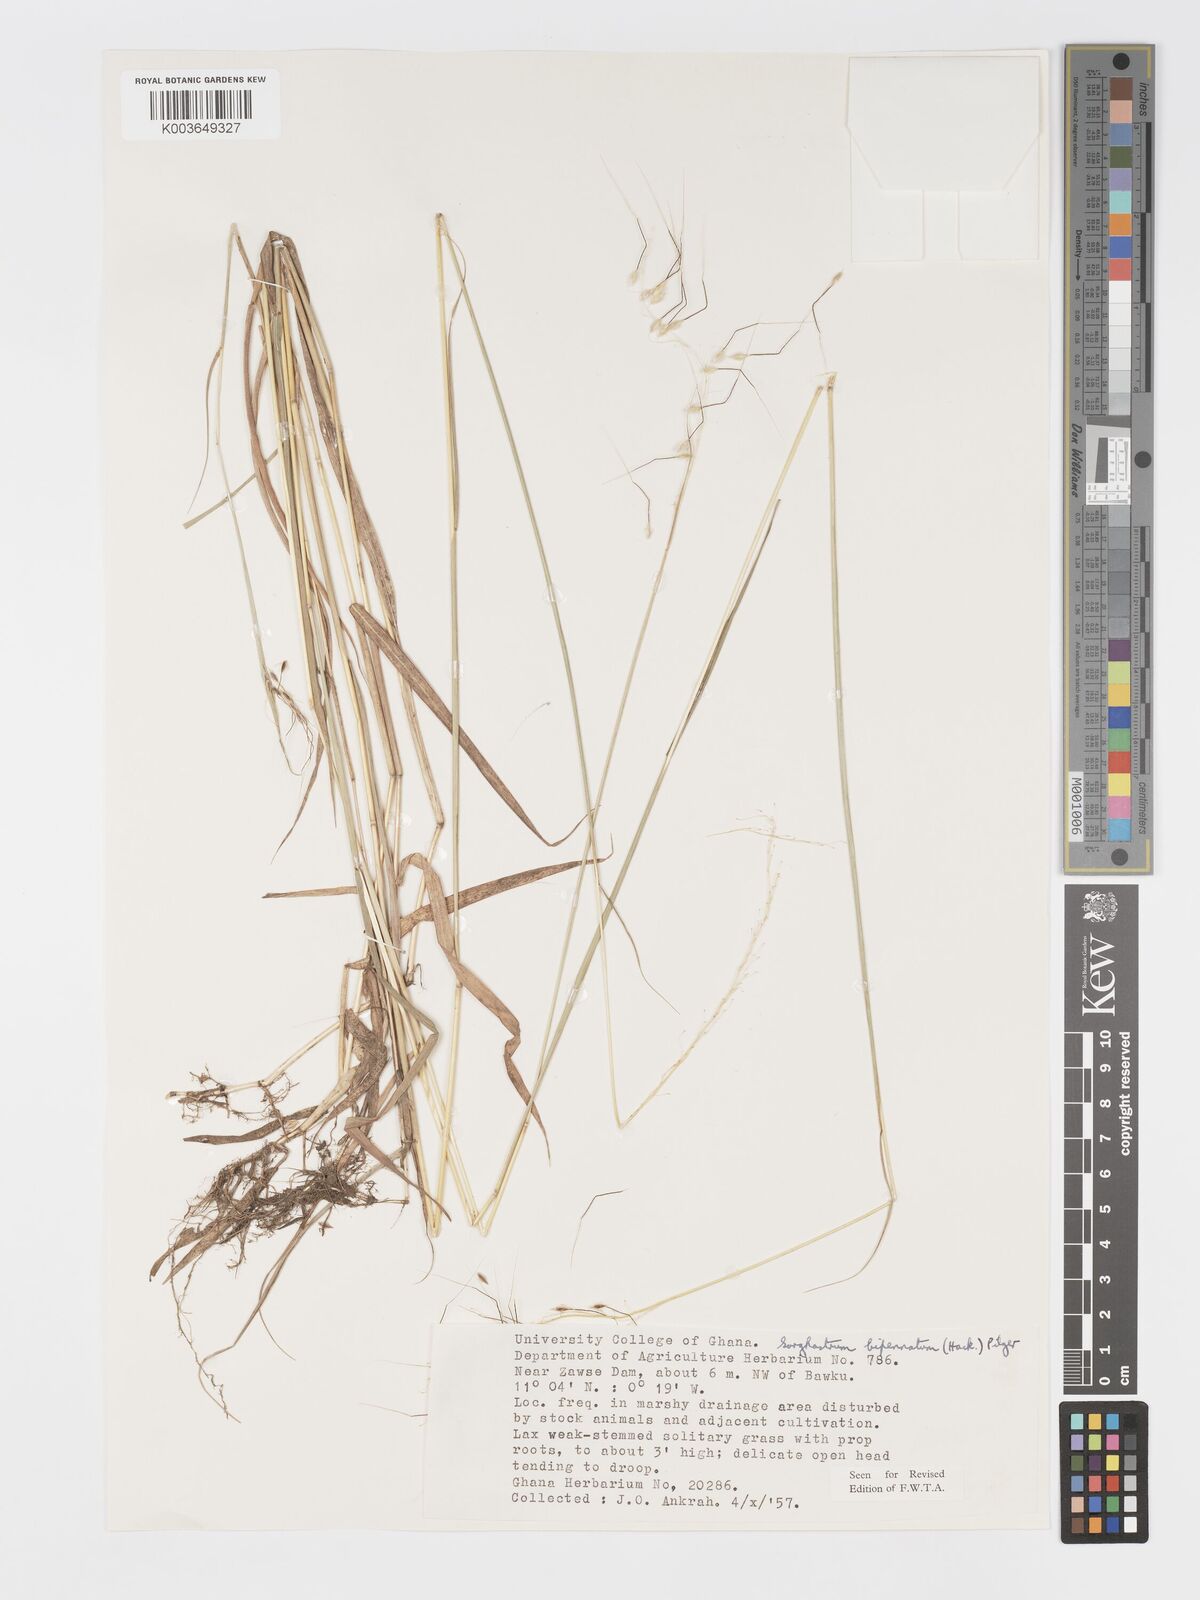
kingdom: Plantae
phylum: Tracheophyta
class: Liliopsida
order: Poales
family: Poaceae
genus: Sorghastrum
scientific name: Sorghastrum incompletum
